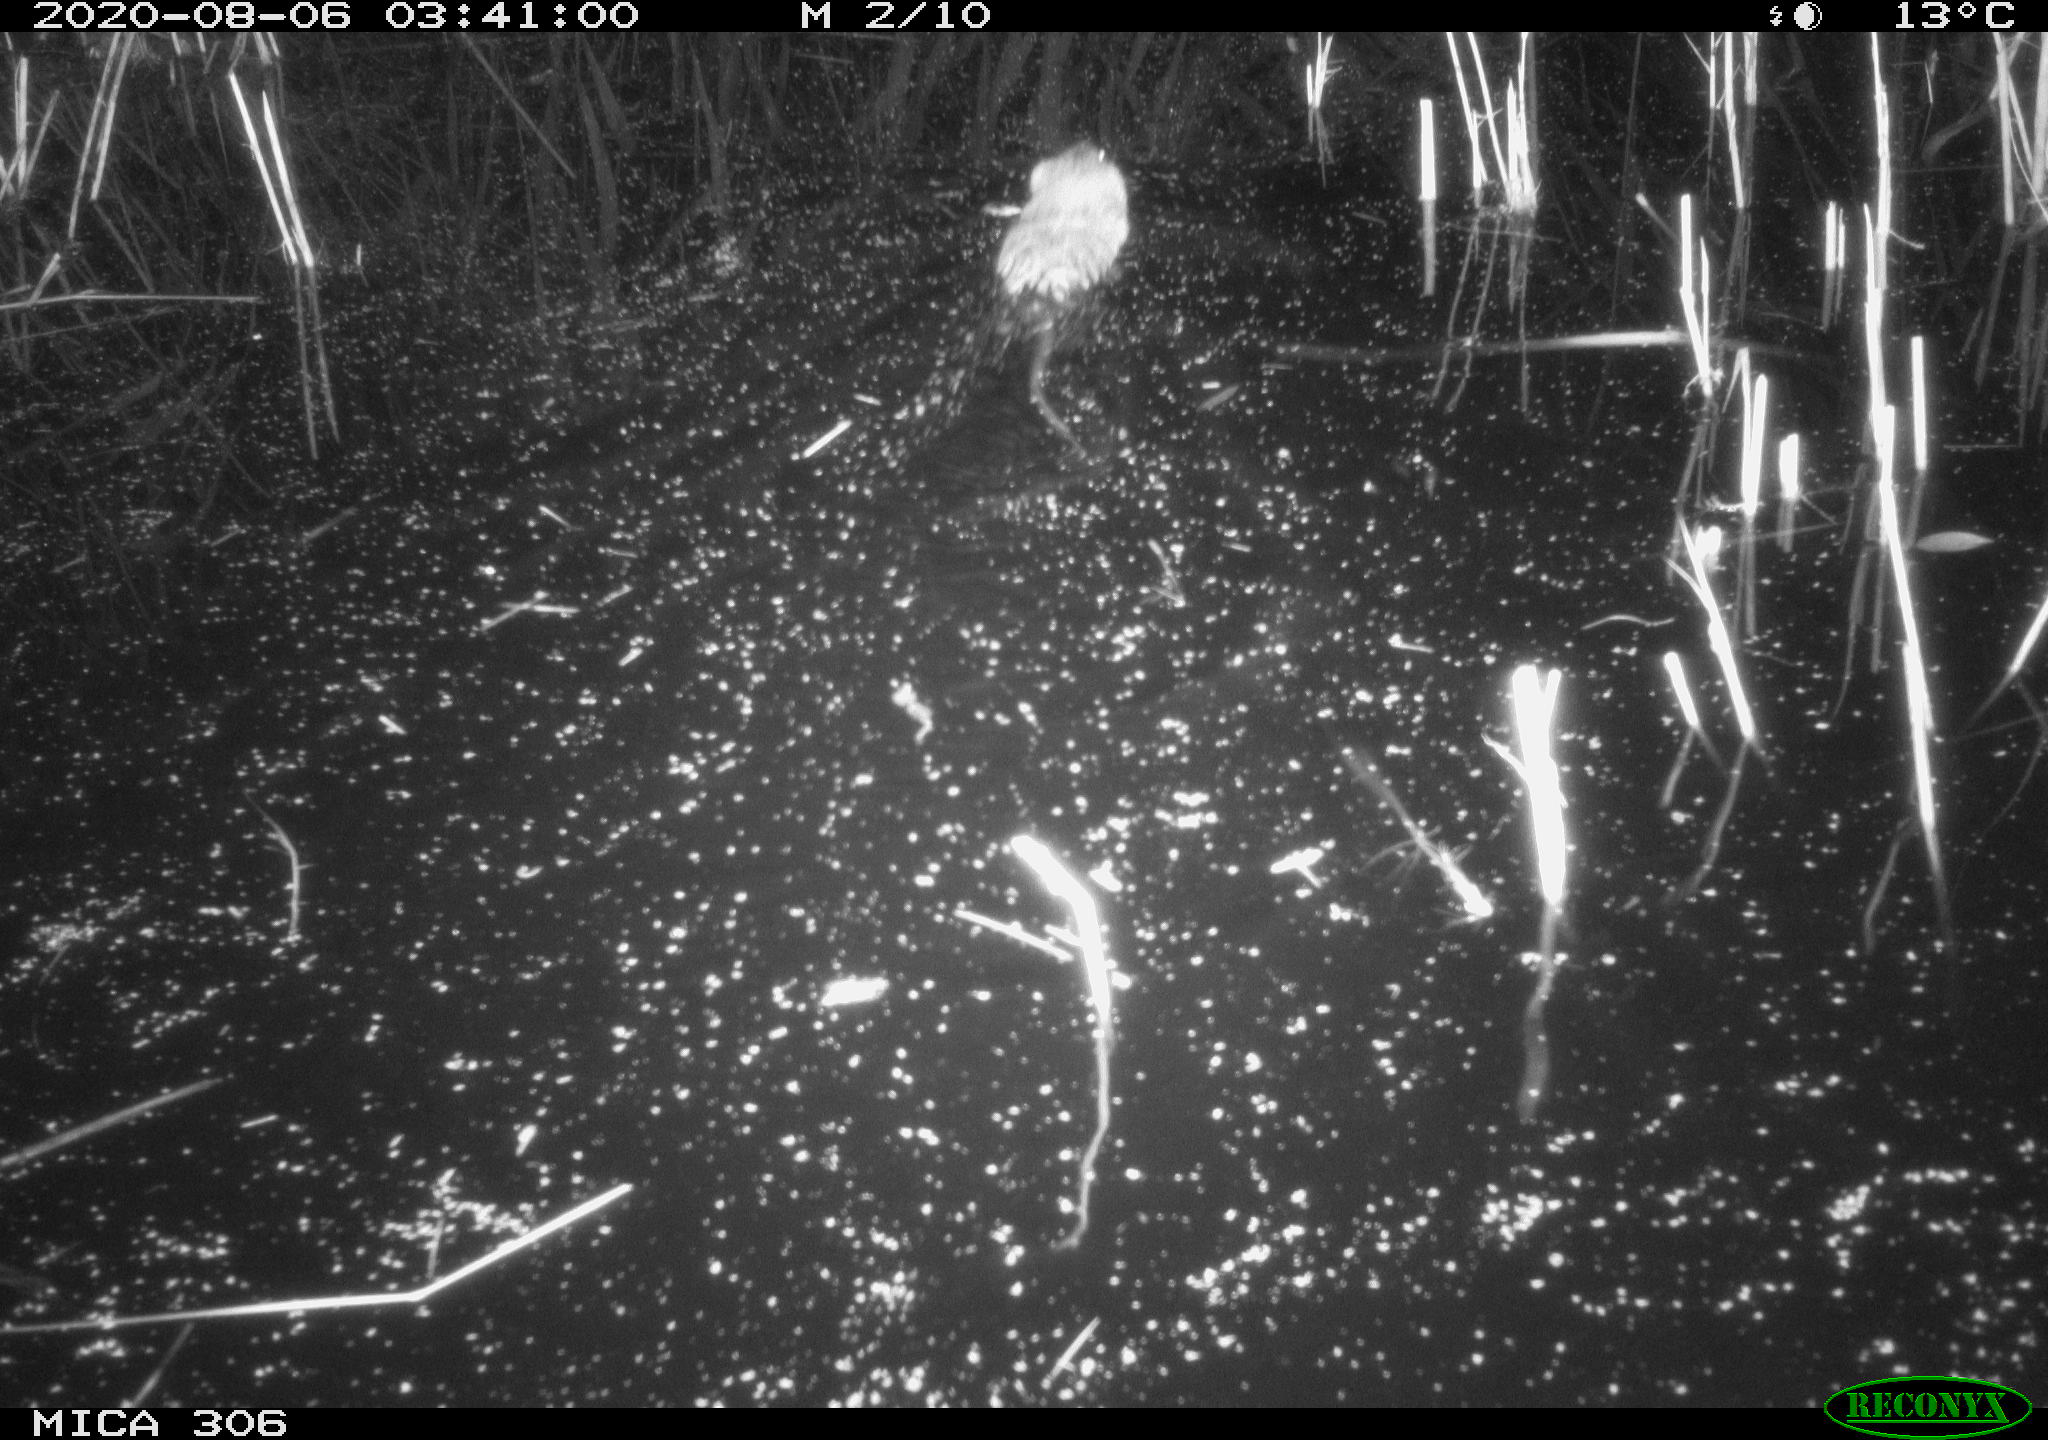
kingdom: Animalia
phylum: Chordata
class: Mammalia
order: Rodentia
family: Cricetidae
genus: Ondatra
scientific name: Ondatra zibethicus
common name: Muskrat
